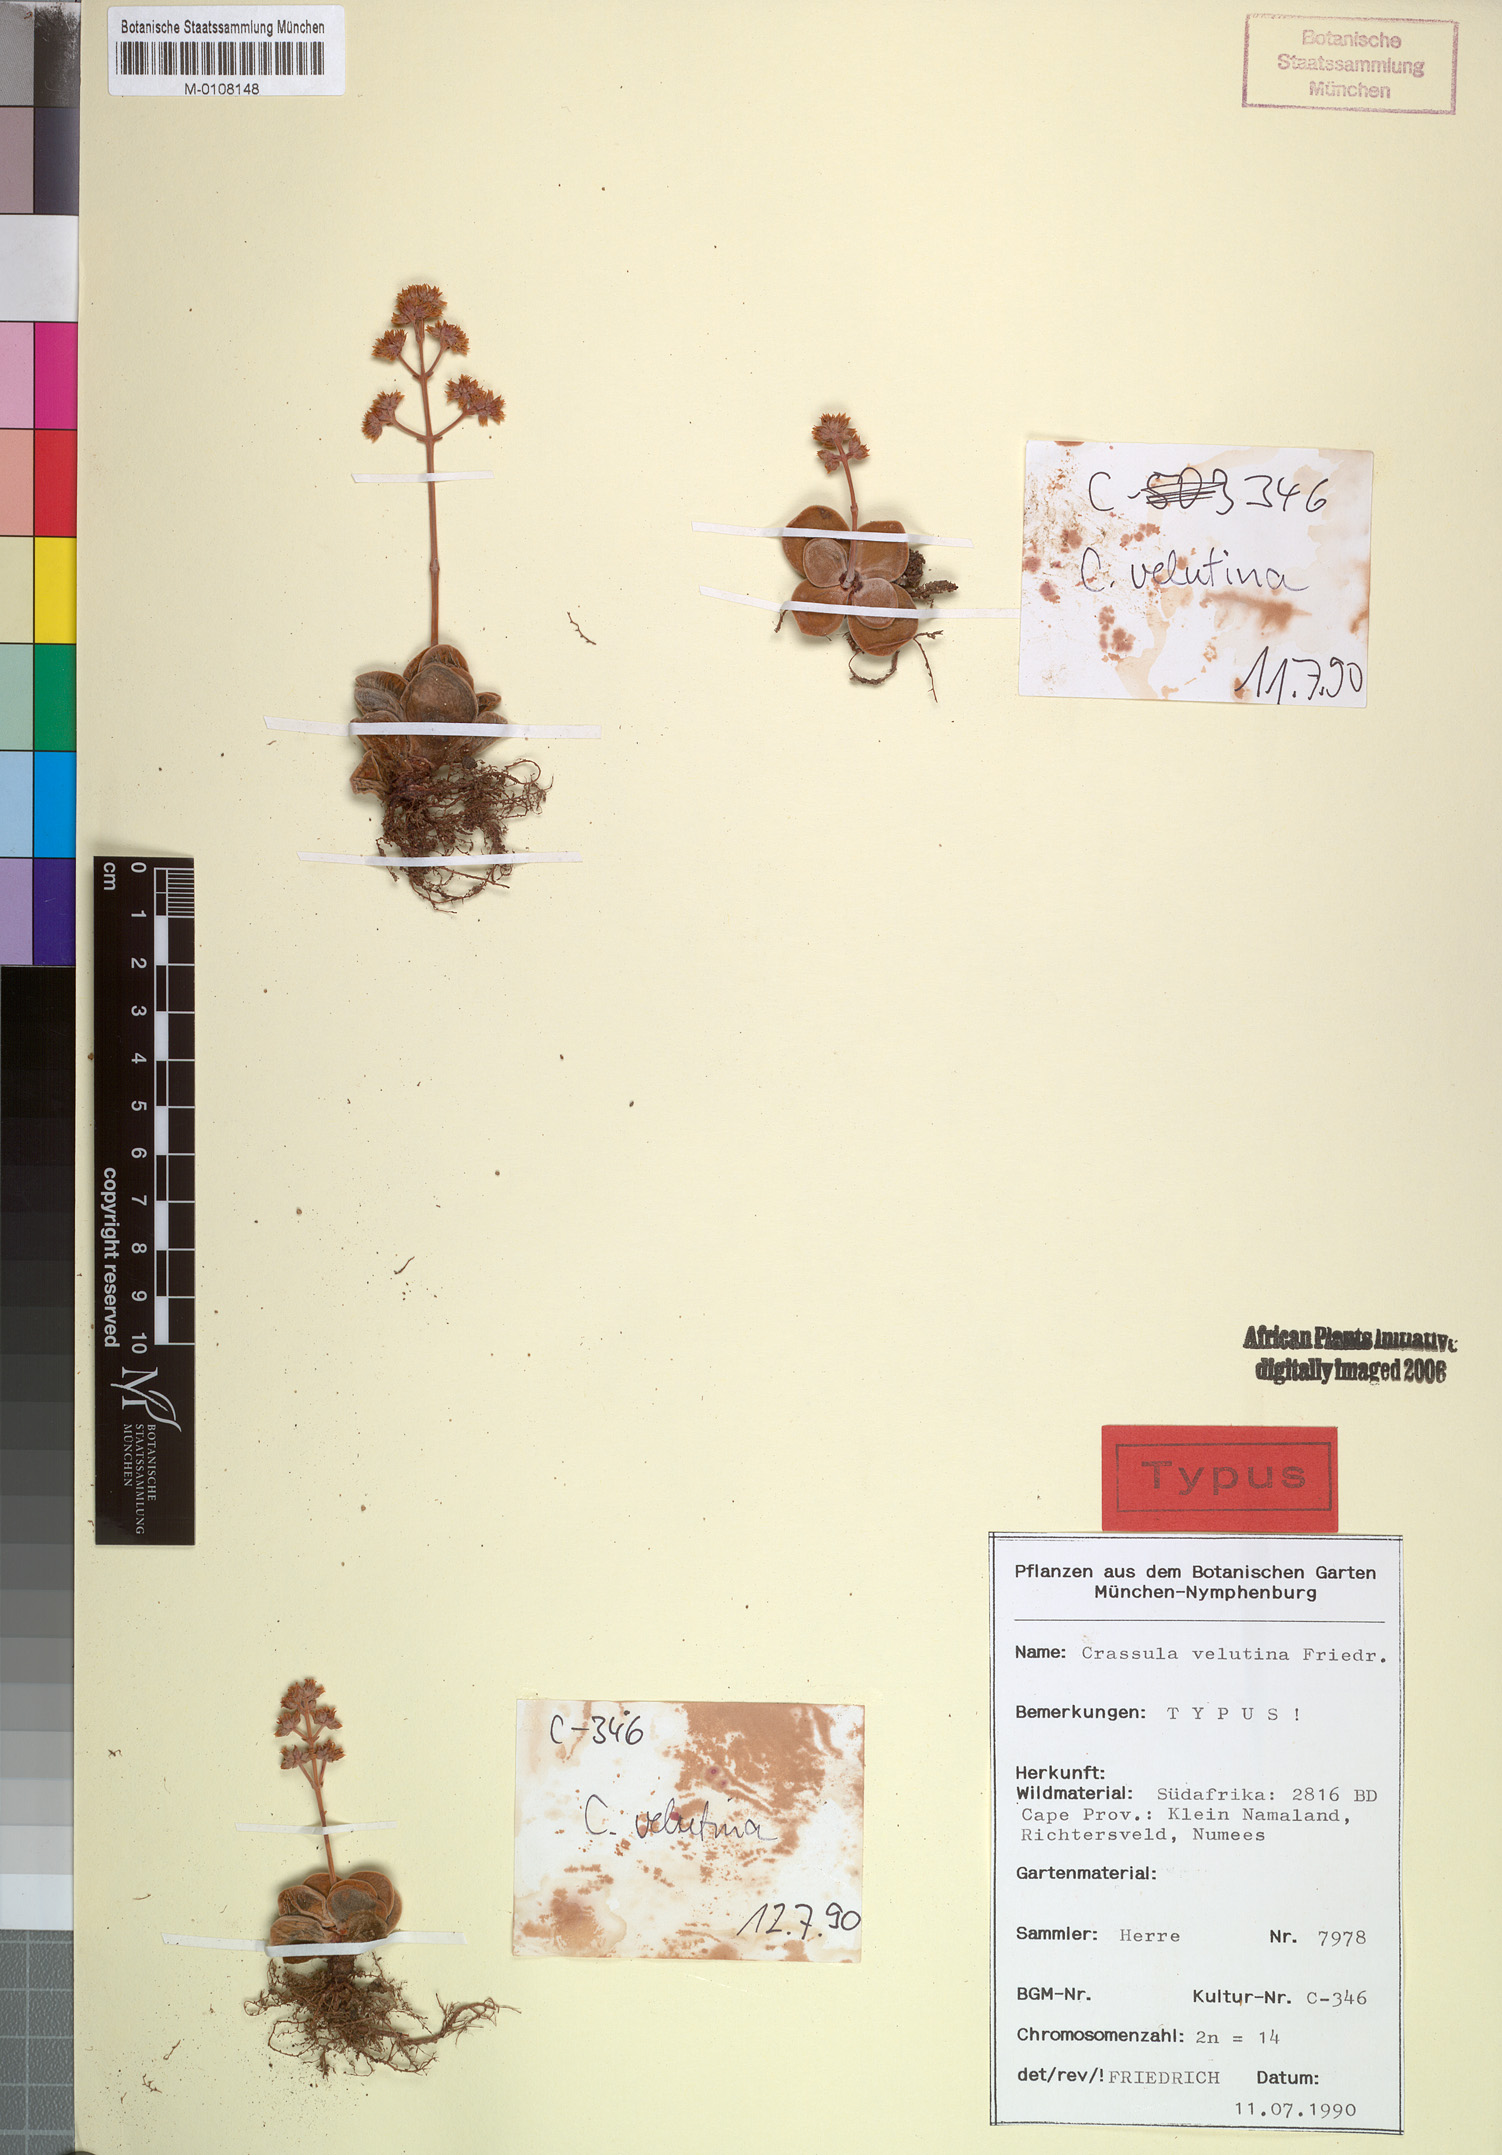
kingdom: Plantae
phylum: Tracheophyta
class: Magnoliopsida
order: Saxifragales
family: Crassulaceae
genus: Crassula
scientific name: Crassula sericea
